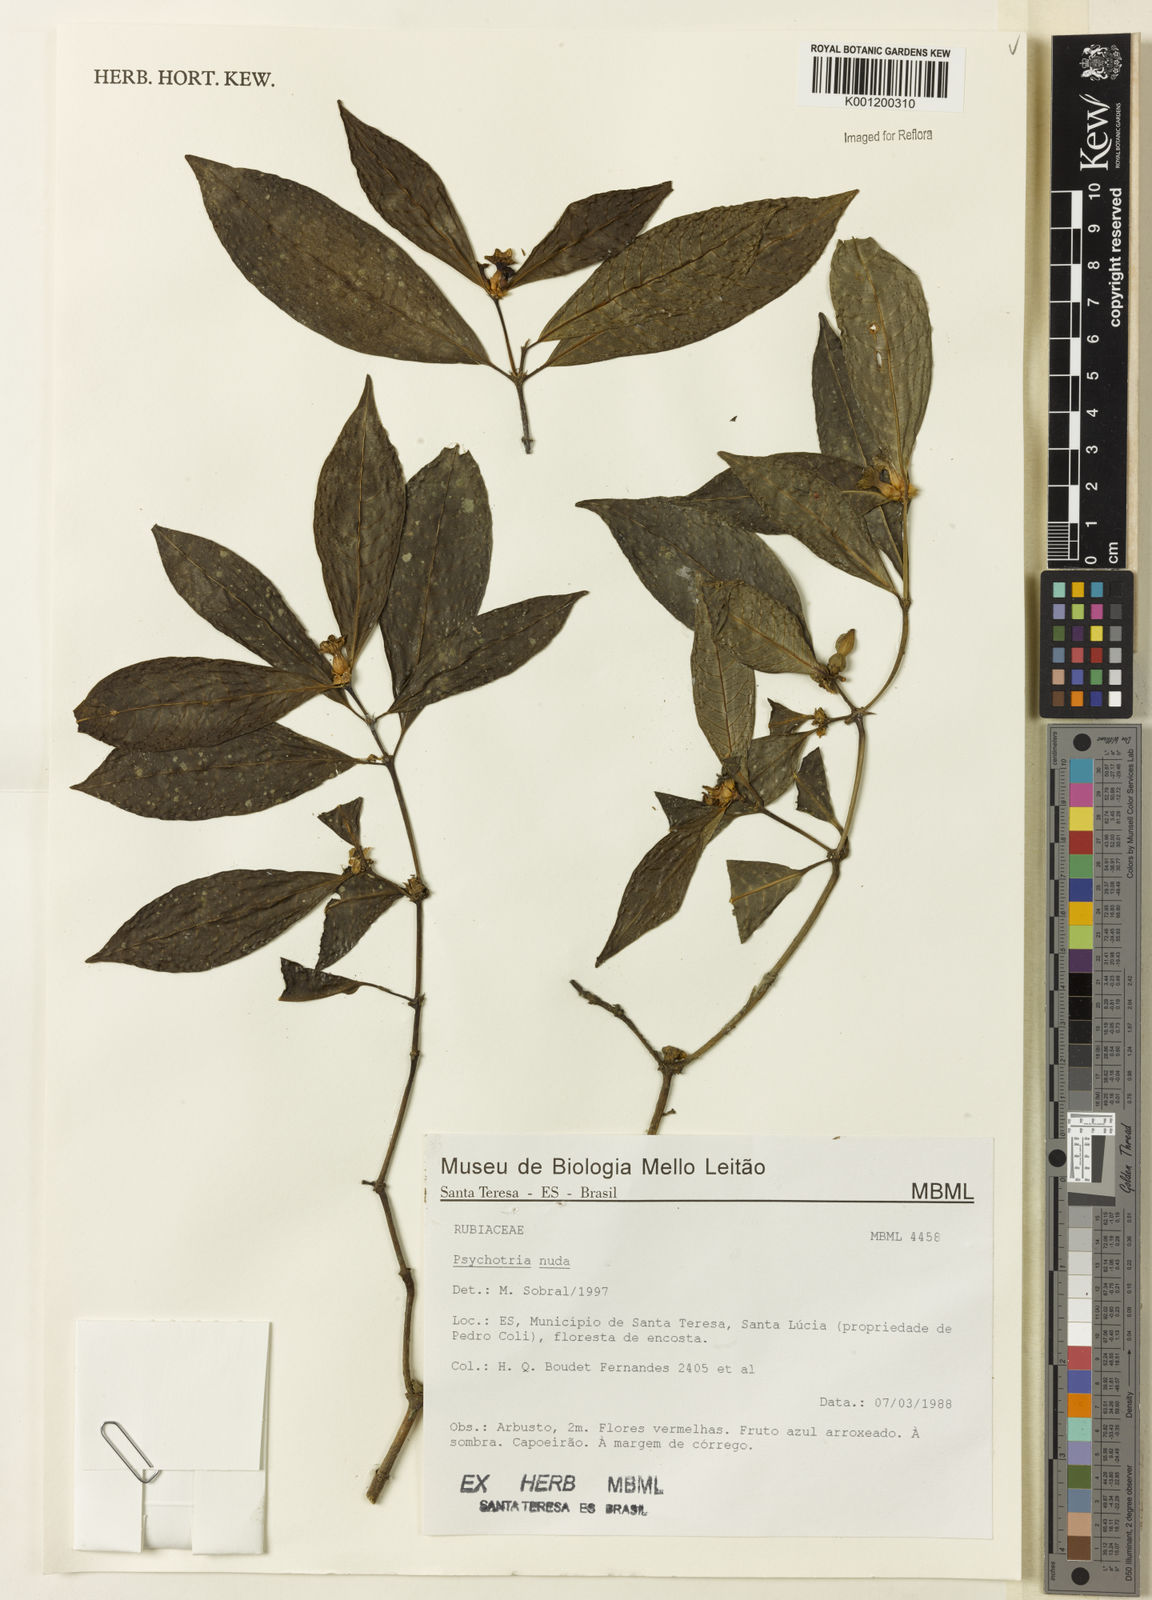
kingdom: Plantae
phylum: Tracheophyta
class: Magnoliopsida
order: Gentianales
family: Rubiaceae
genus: Psychotria
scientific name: Psychotria nuda
